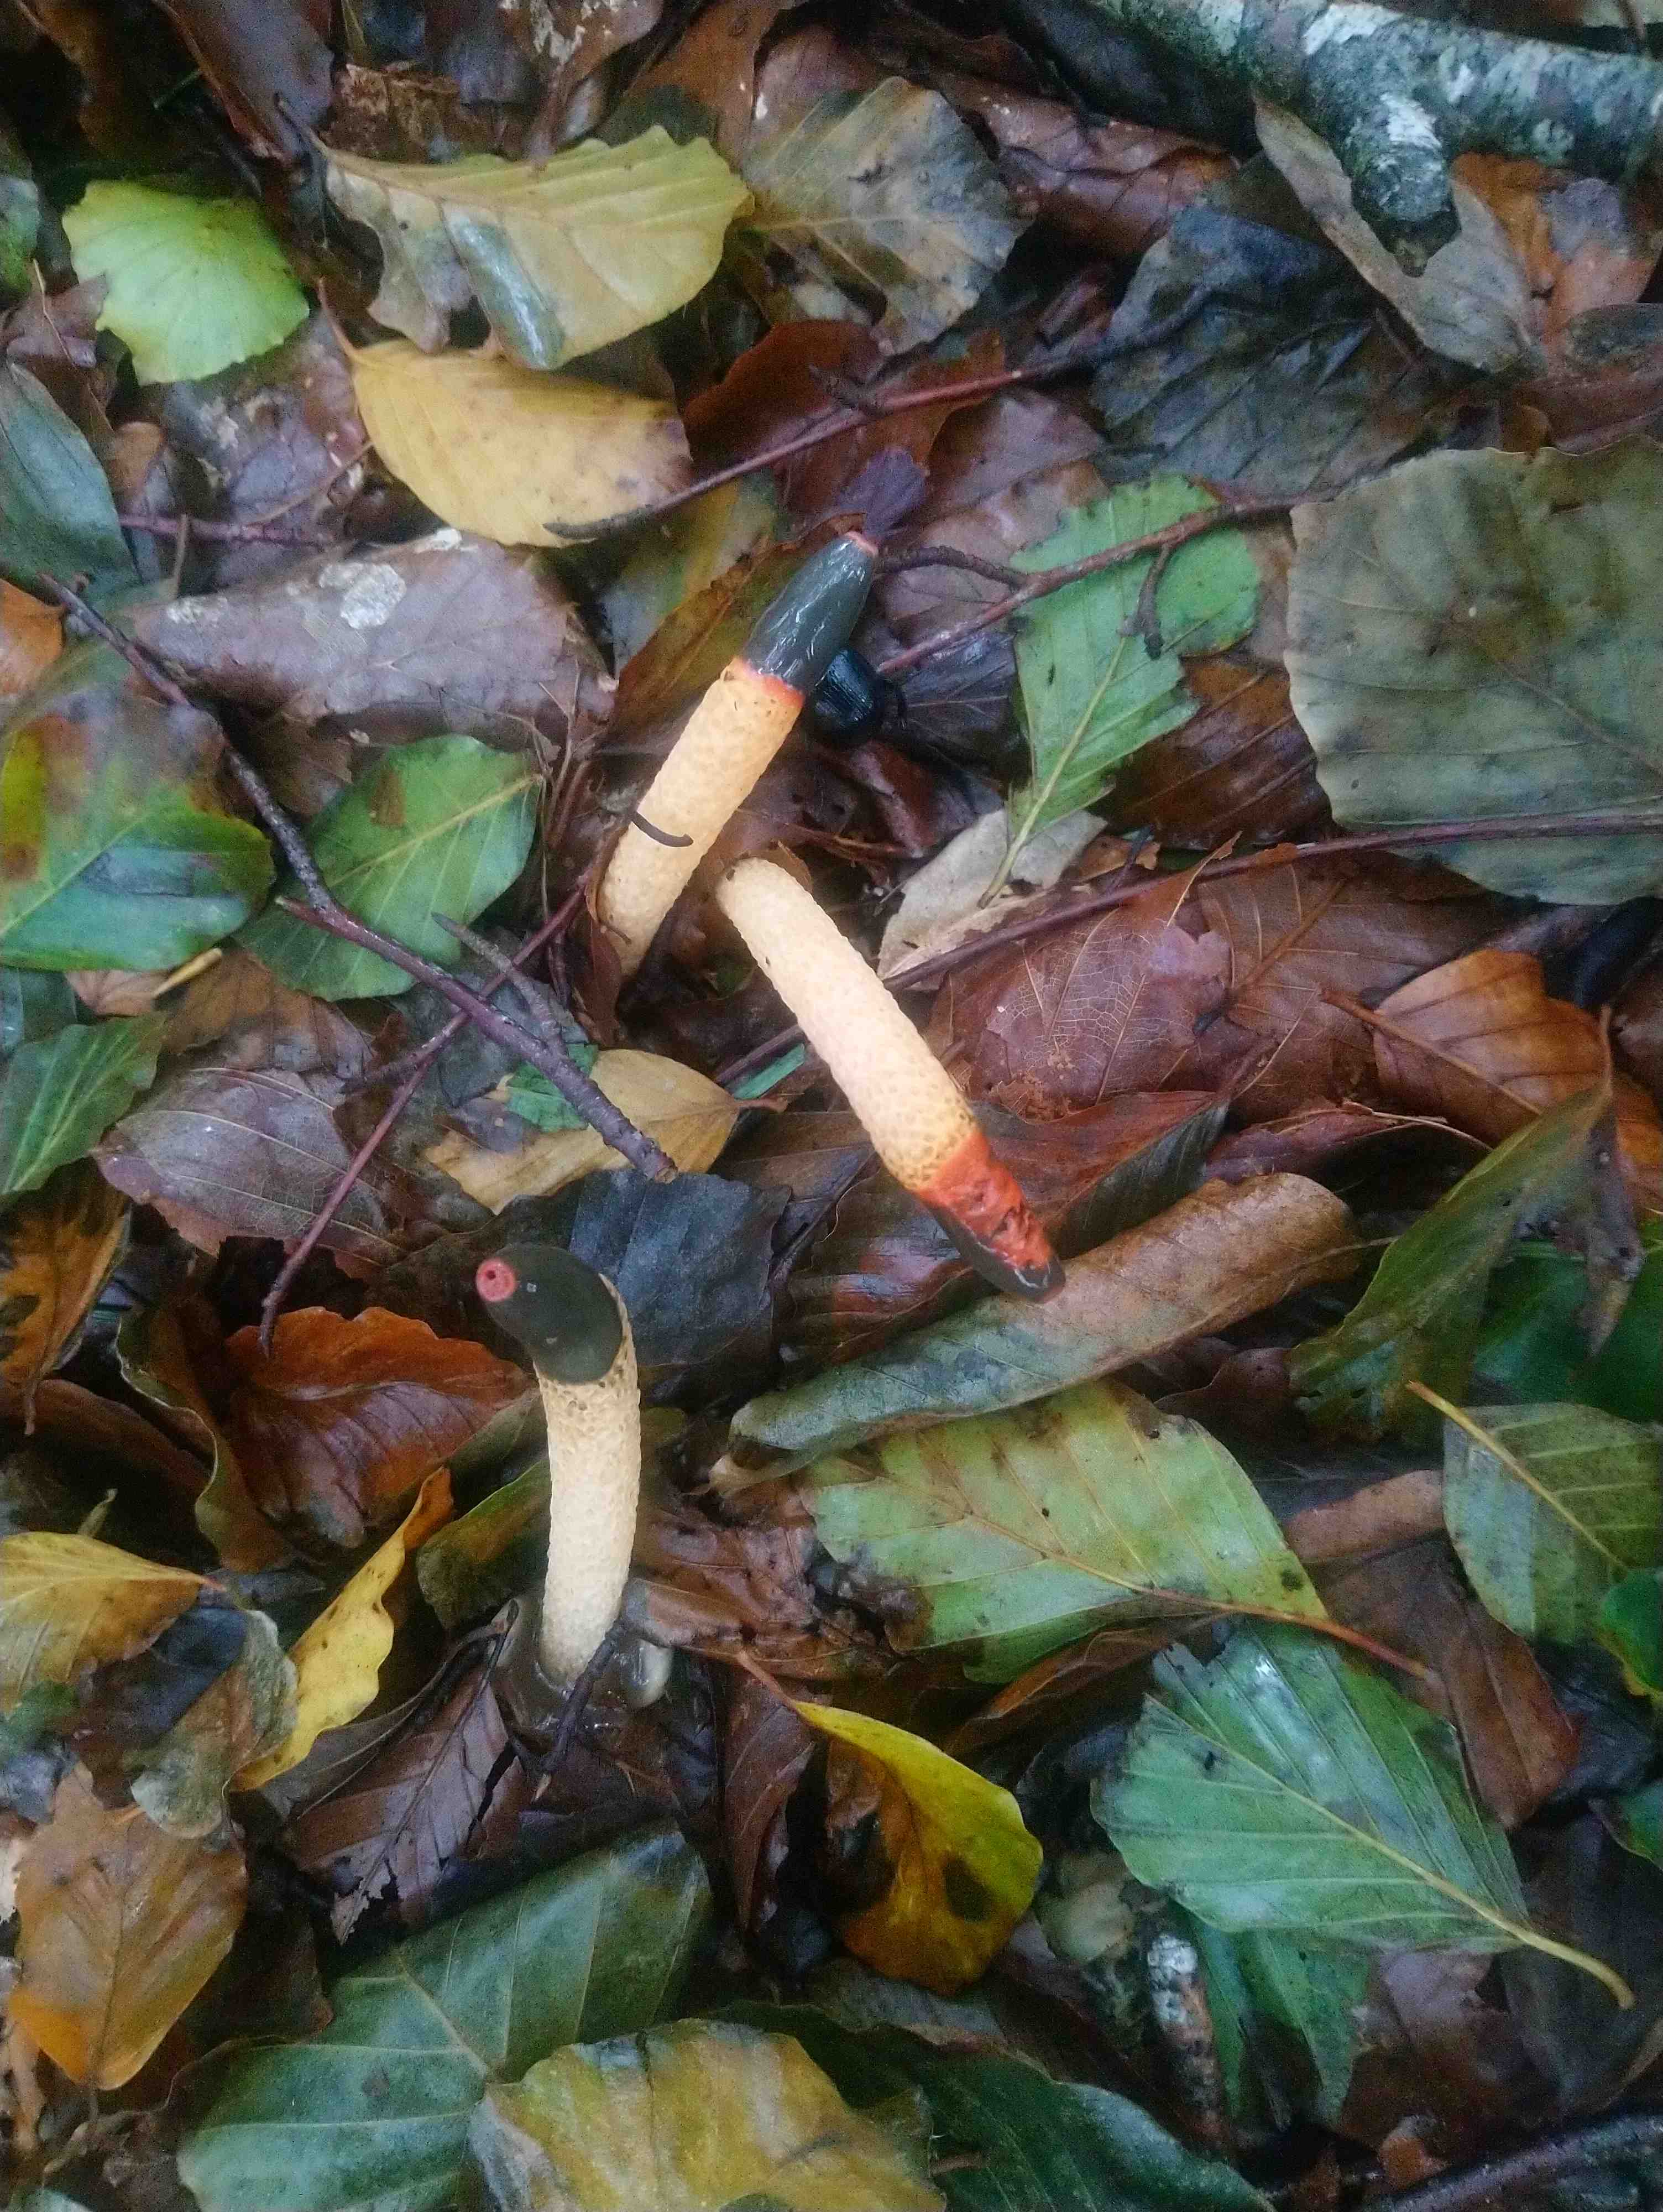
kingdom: Fungi
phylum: Basidiomycota
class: Agaricomycetes
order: Phallales
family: Phallaceae
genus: Mutinus
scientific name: Mutinus caninus
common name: hunde-stinksvamp
